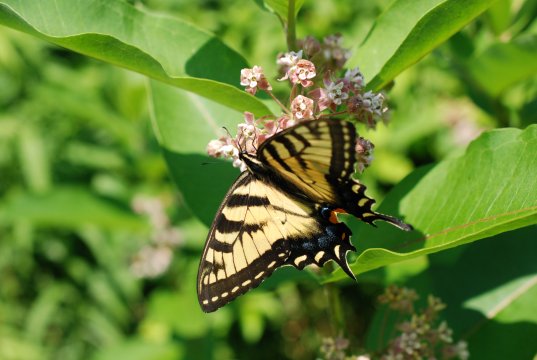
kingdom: Animalia
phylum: Arthropoda
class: Insecta
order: Lepidoptera
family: Papilionidae
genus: Pterourus
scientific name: Pterourus glaucus
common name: Eastern Tiger Swallowtail
